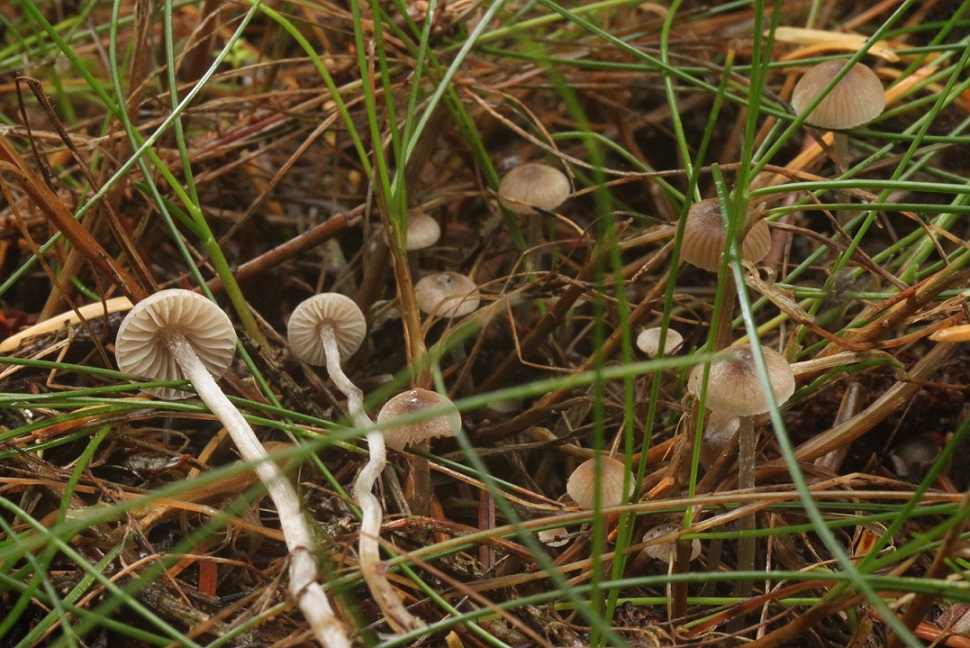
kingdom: Fungi
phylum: Basidiomycota
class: Agaricomycetes
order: Agaricales
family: Lyophyllaceae
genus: Sagaranella
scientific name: Sagaranella tylicolor
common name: kvælstof-gråblad
